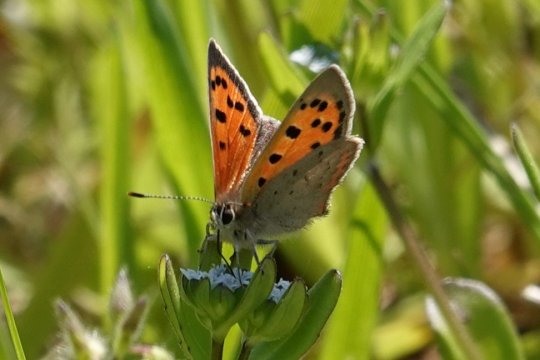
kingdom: Animalia
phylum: Arthropoda
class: Insecta
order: Lepidoptera
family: Lycaenidae
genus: Lycaena
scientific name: Lycaena phlaeas
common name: American Copper
